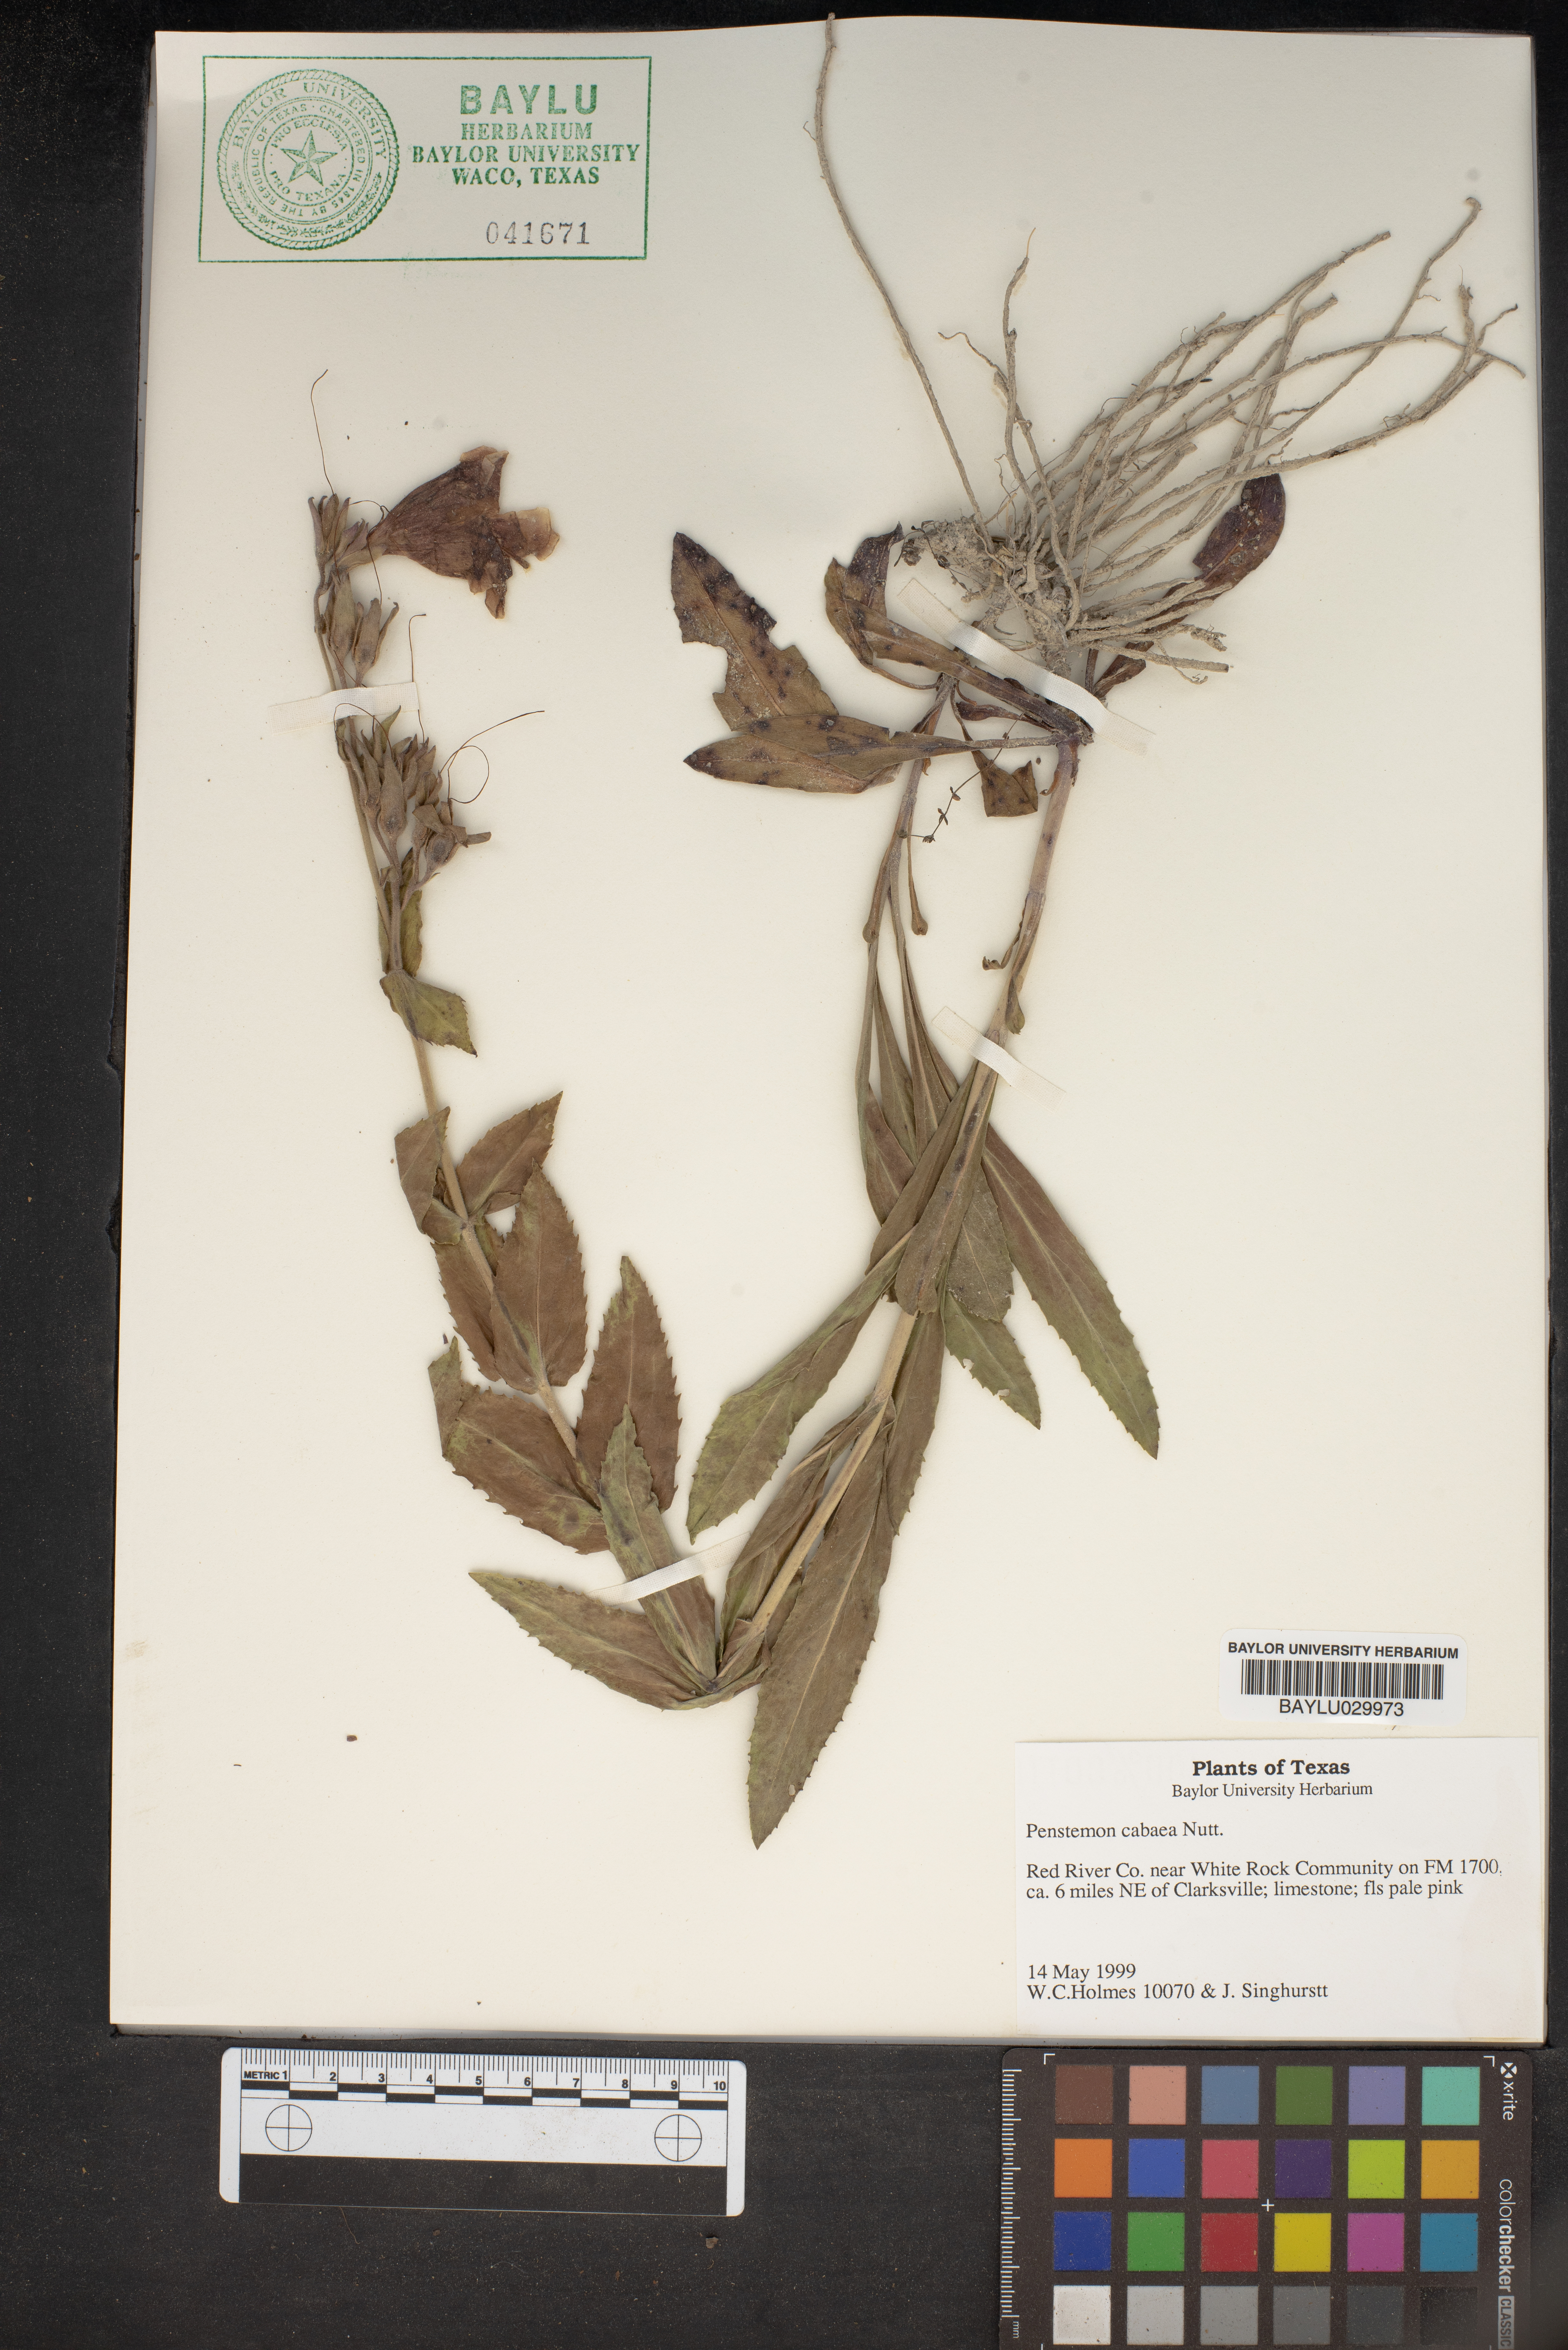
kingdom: Plantae
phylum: Tracheophyta
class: Magnoliopsida
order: Lamiales
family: Plantaginaceae
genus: Penstemon
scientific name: Penstemon cobaea
